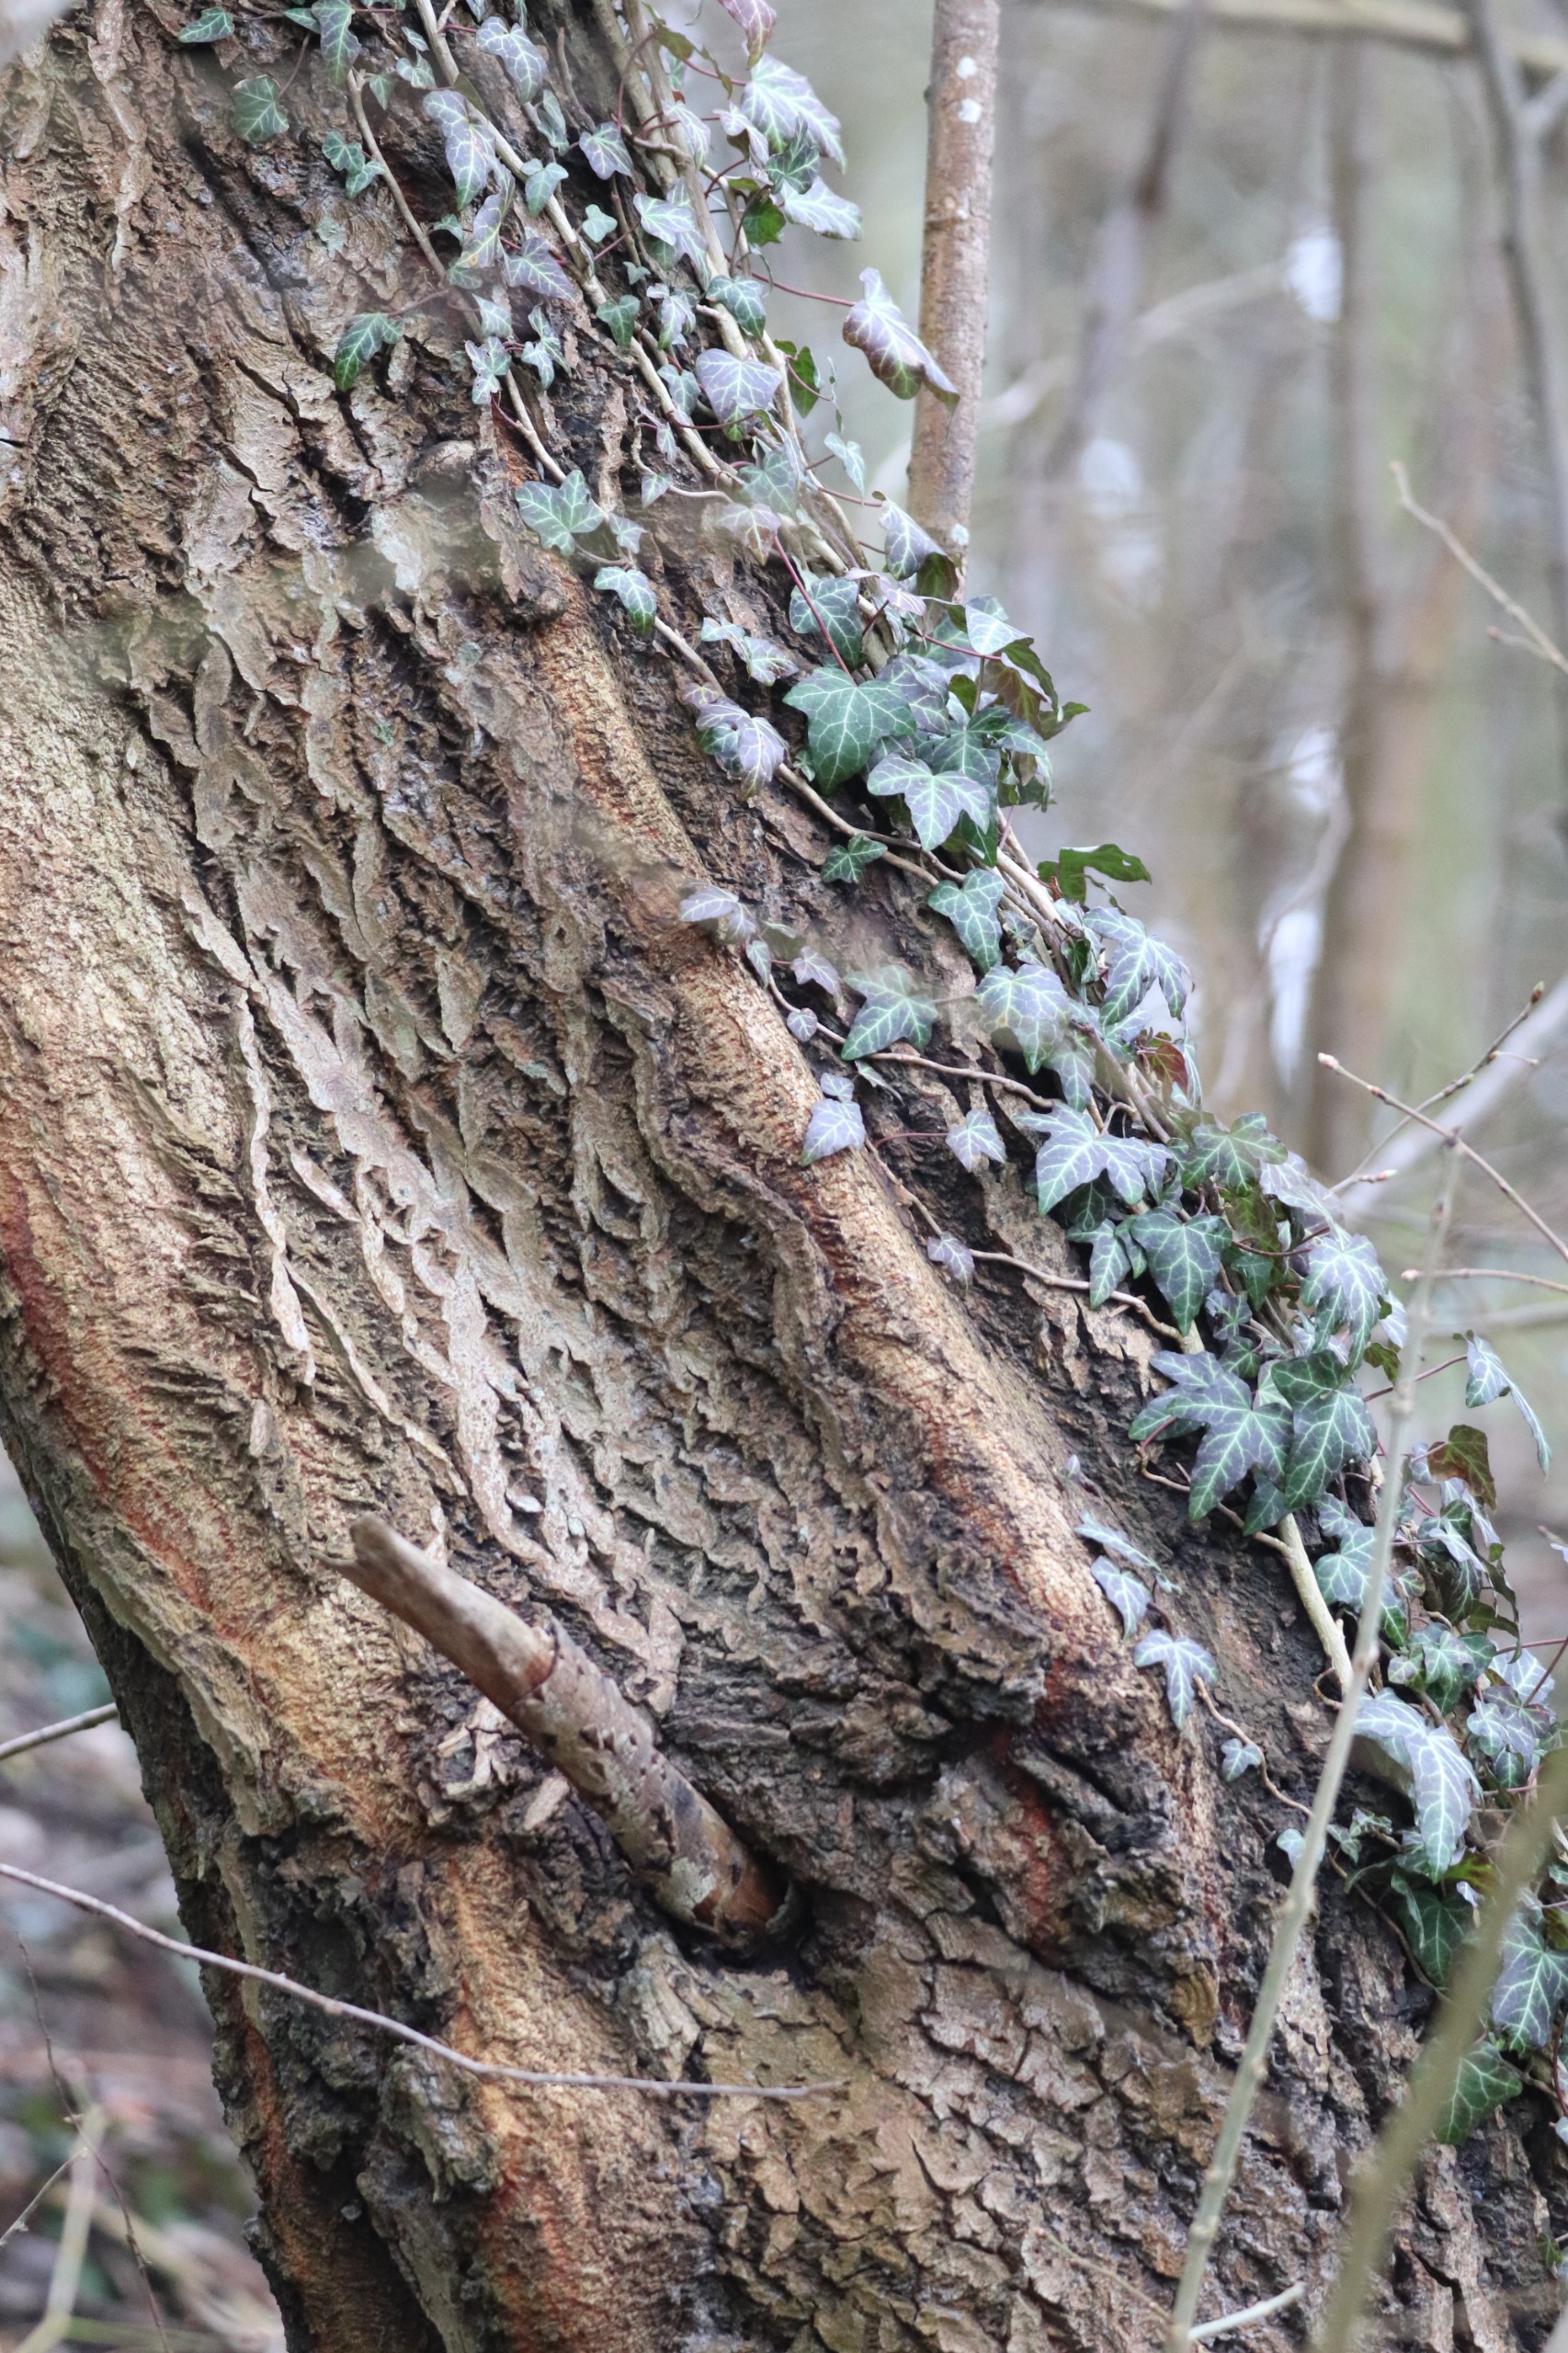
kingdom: Plantae
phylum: Tracheophyta
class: Magnoliopsida
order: Apiales
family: Araliaceae
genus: Hedera
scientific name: Hedera helix
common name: Vedbend
